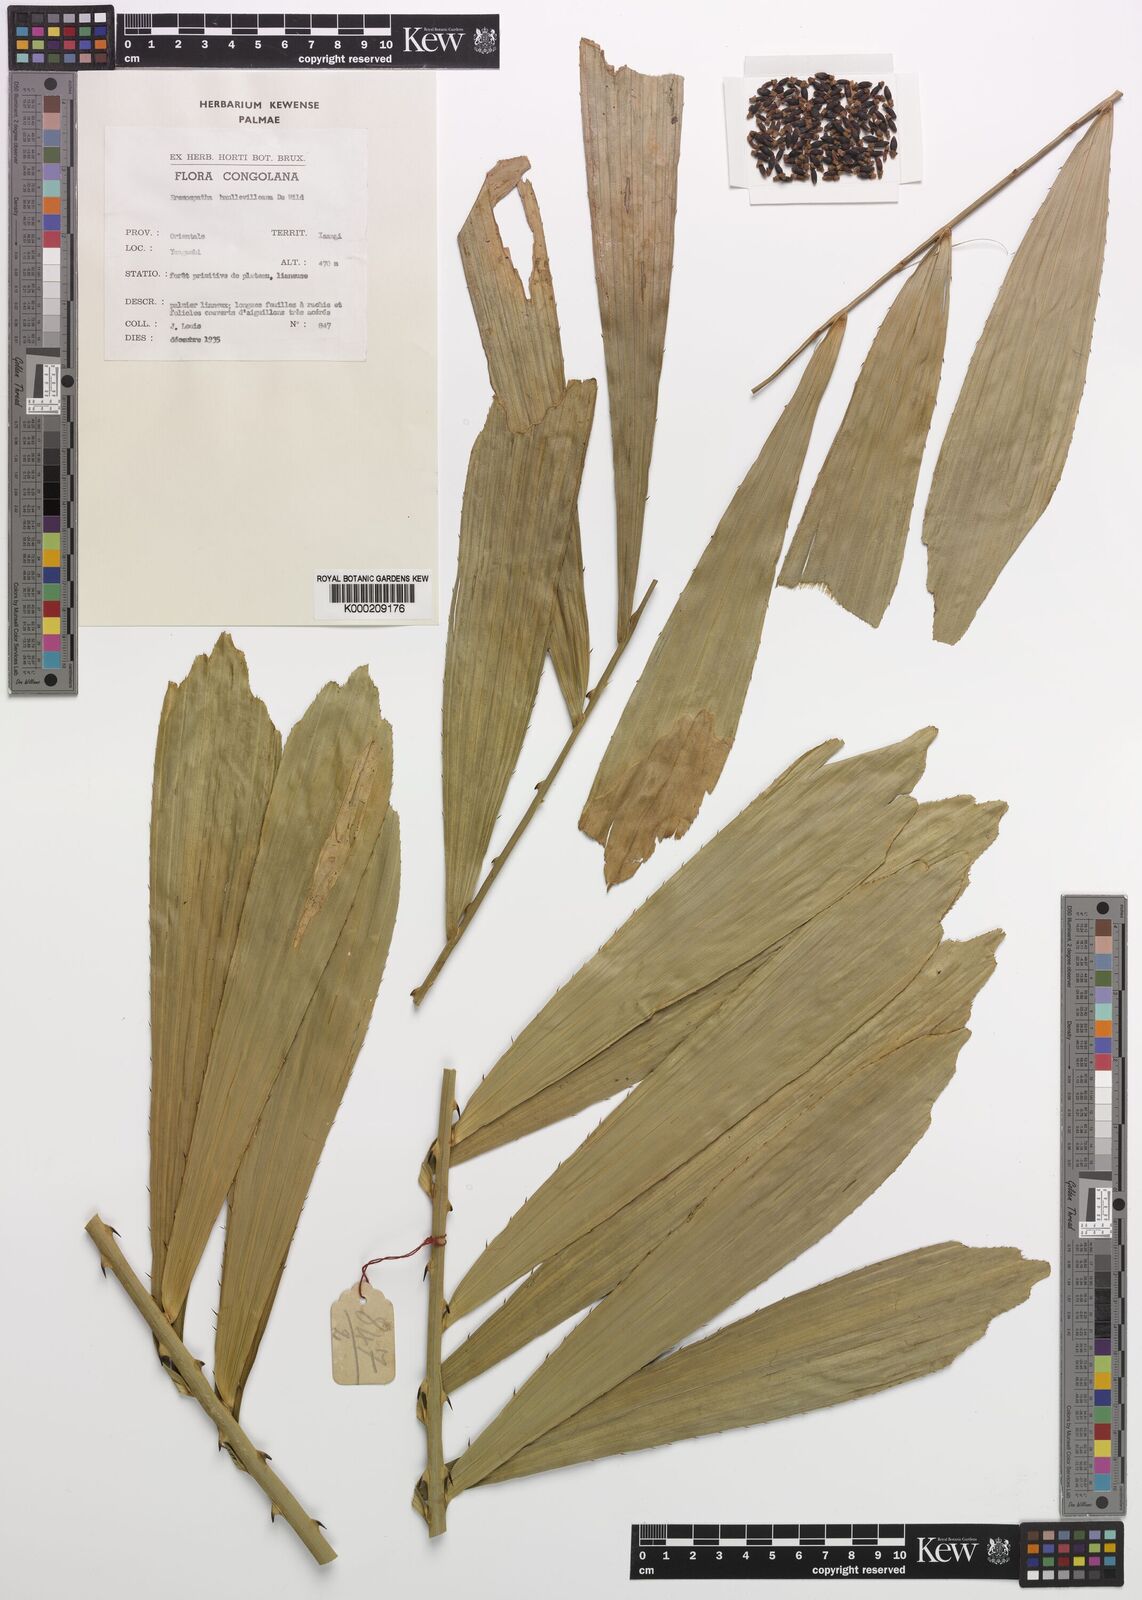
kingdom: Plantae
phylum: Tracheophyta
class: Liliopsida
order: Arecales
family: Arecaceae
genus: Eremospatha
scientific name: Eremospatha haullevilleana
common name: Rattan
